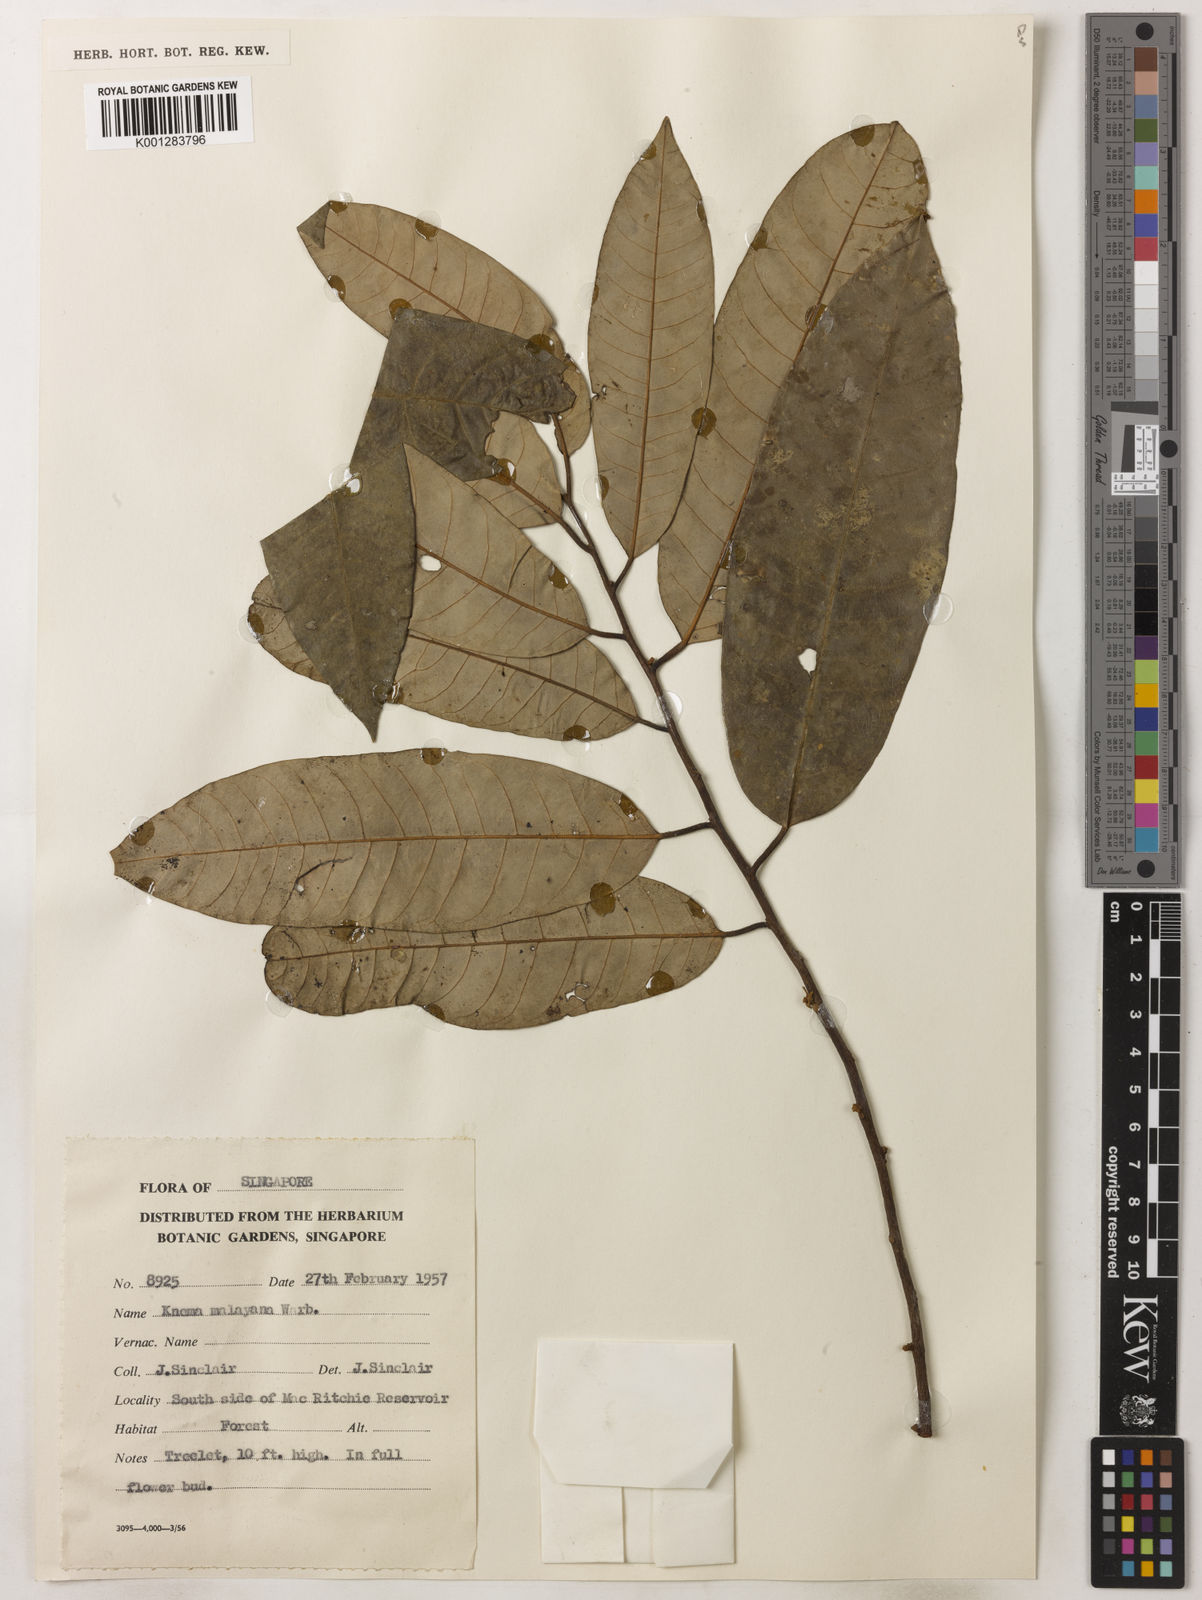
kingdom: Plantae
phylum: Tracheophyta
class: Magnoliopsida
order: Magnoliales
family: Myristicaceae
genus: Knema
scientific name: Knema malayana
